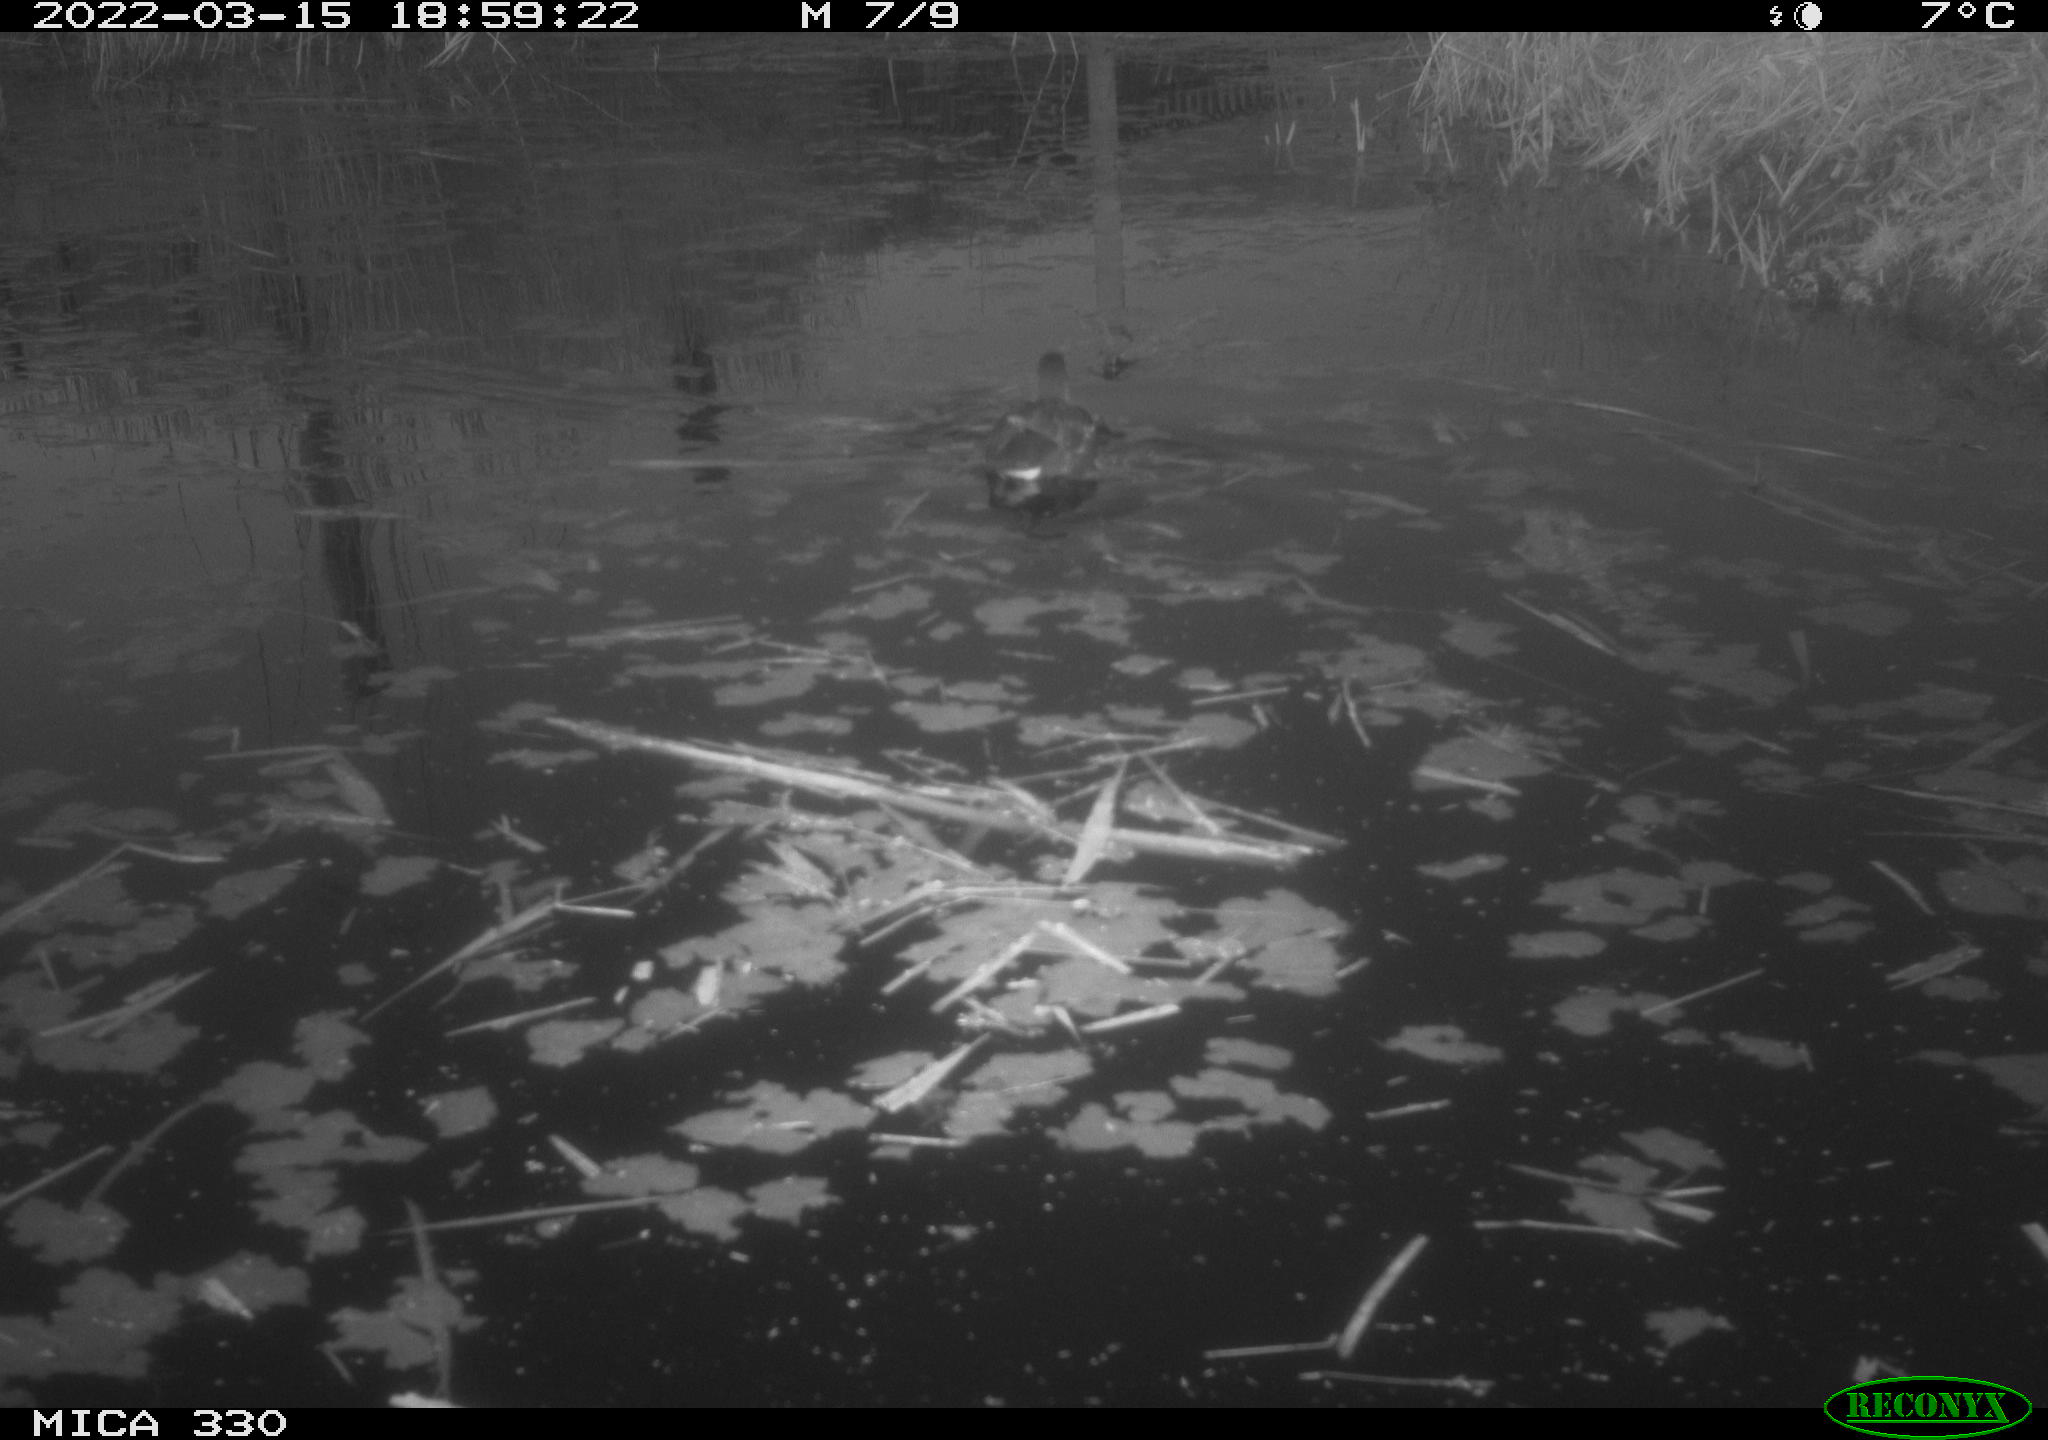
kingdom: Animalia
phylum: Chordata
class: Aves
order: Gruiformes
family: Rallidae
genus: Gallinula
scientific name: Gallinula chloropus
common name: Common moorhen
